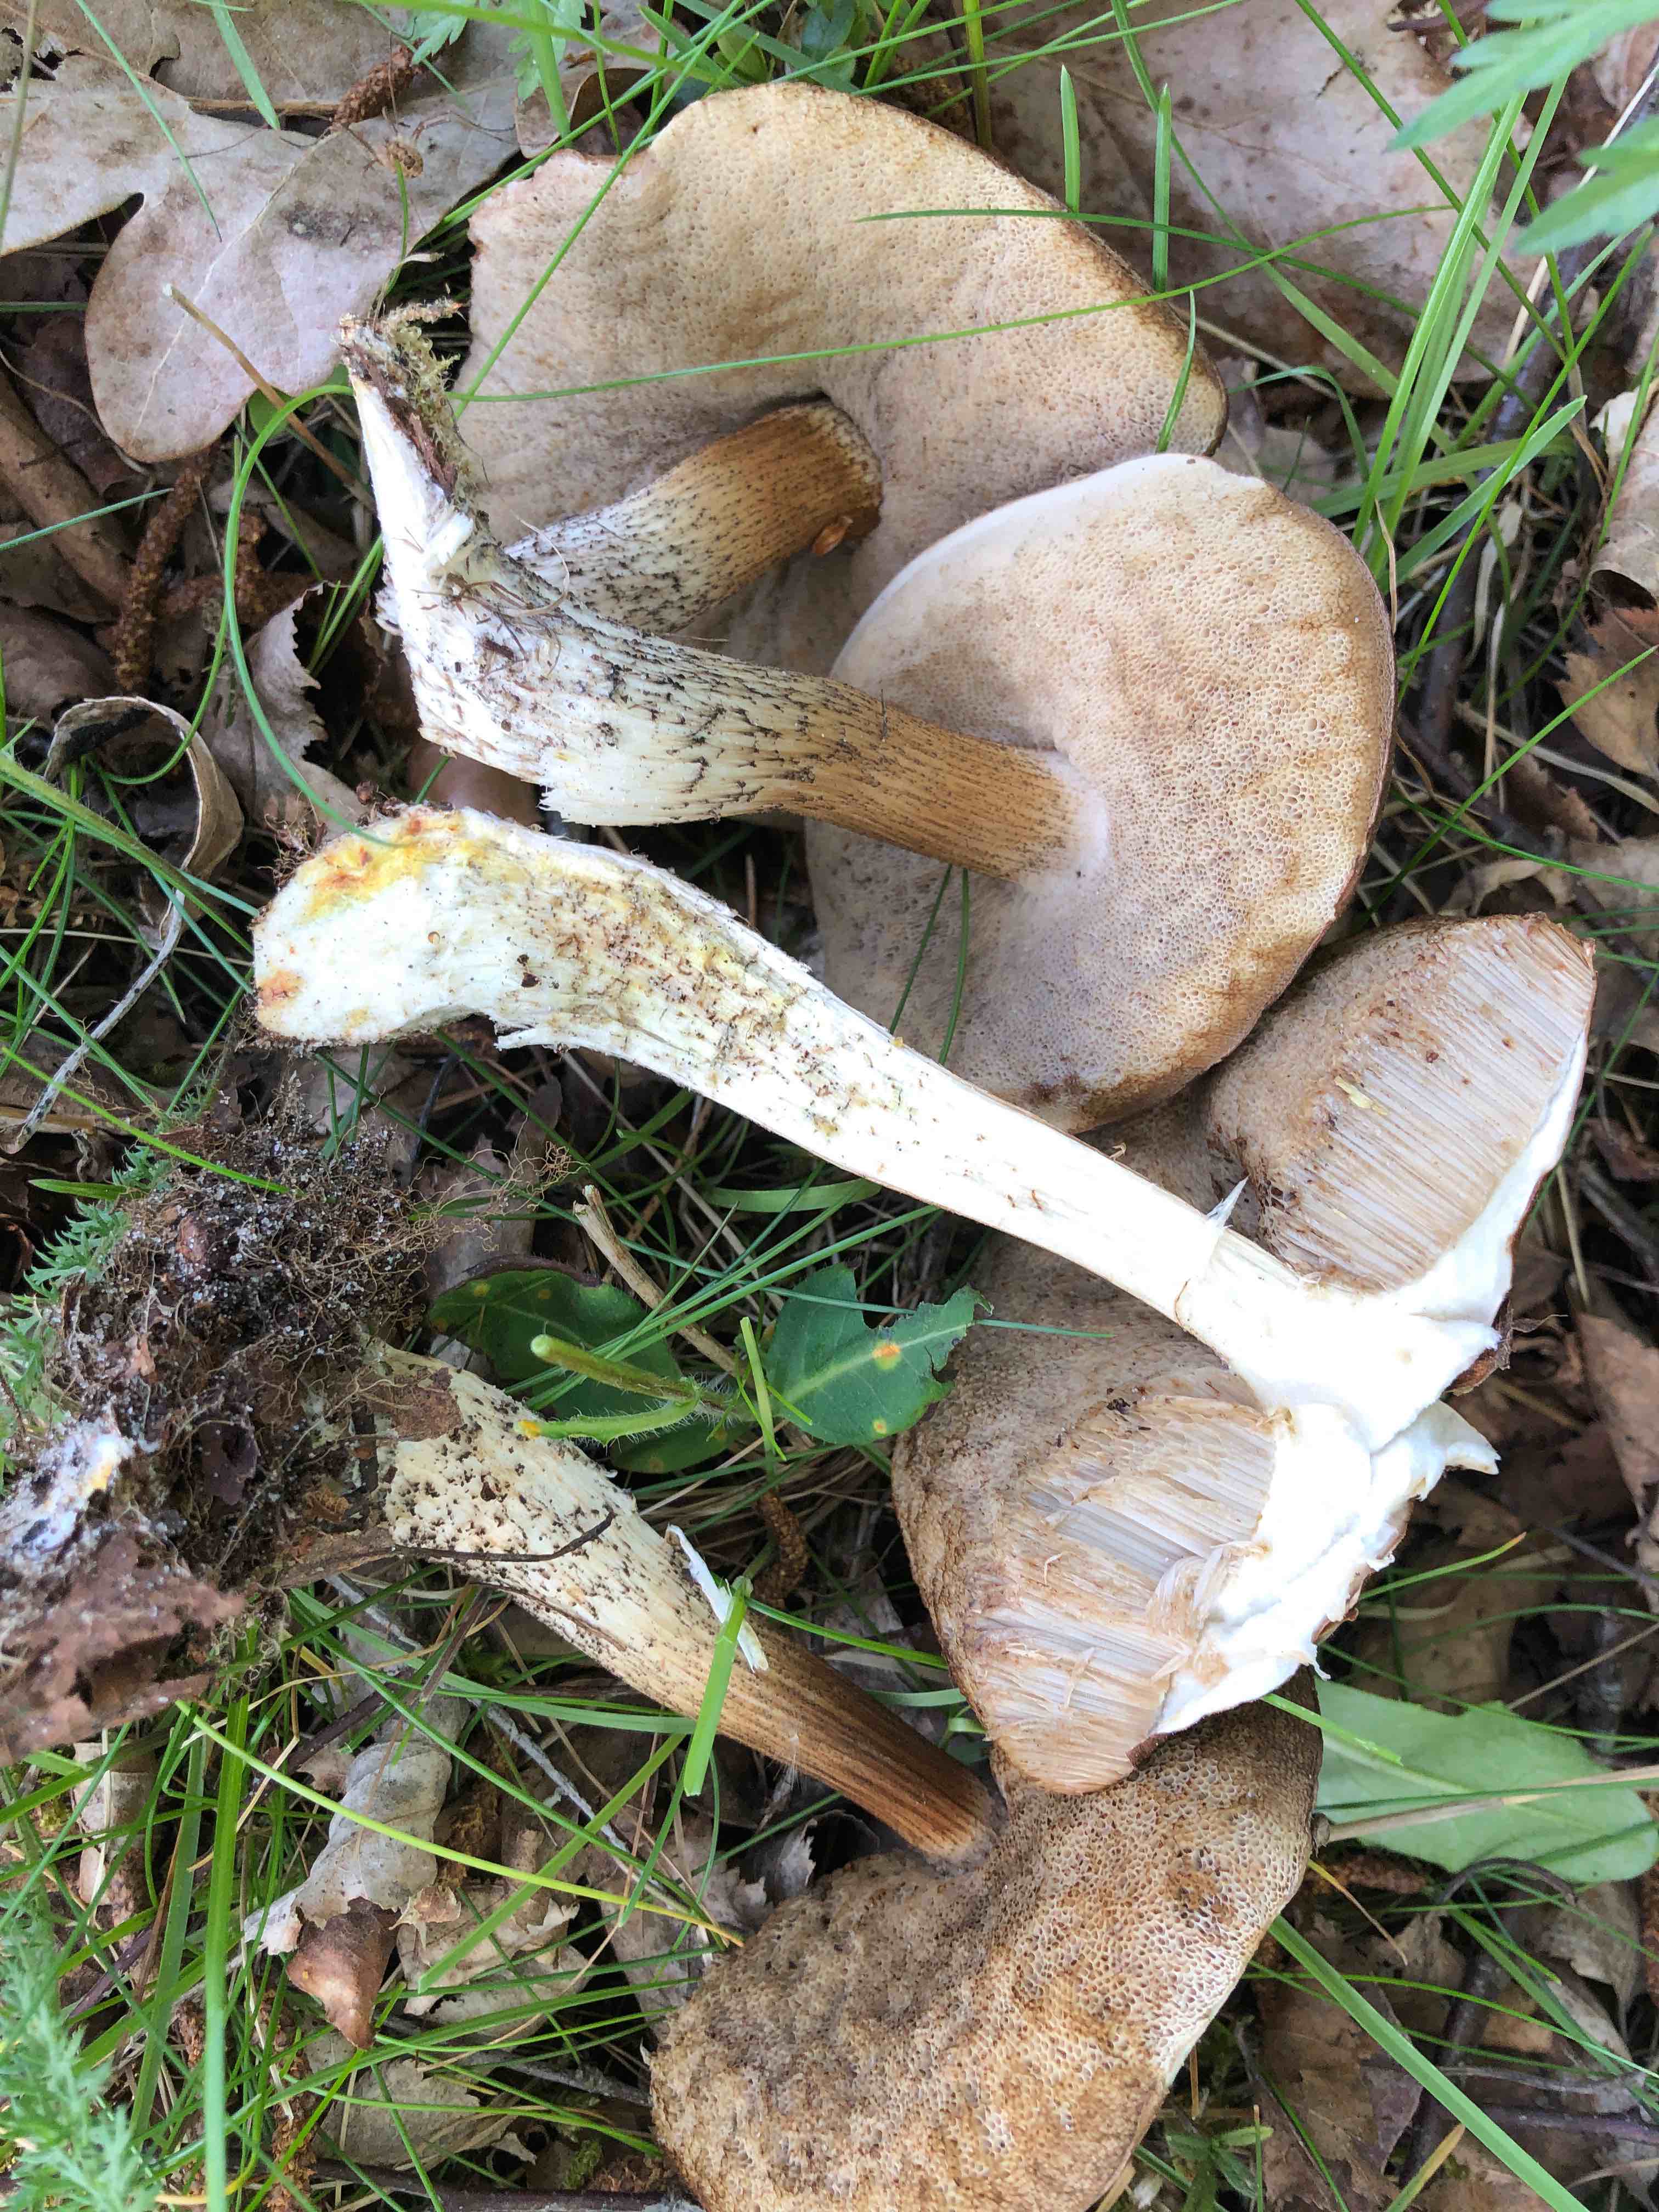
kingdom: Fungi
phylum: Basidiomycota
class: Agaricomycetes
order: Boletales
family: Boletaceae
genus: Leccinum
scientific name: Leccinum scabrum
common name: brun skælrørhat
